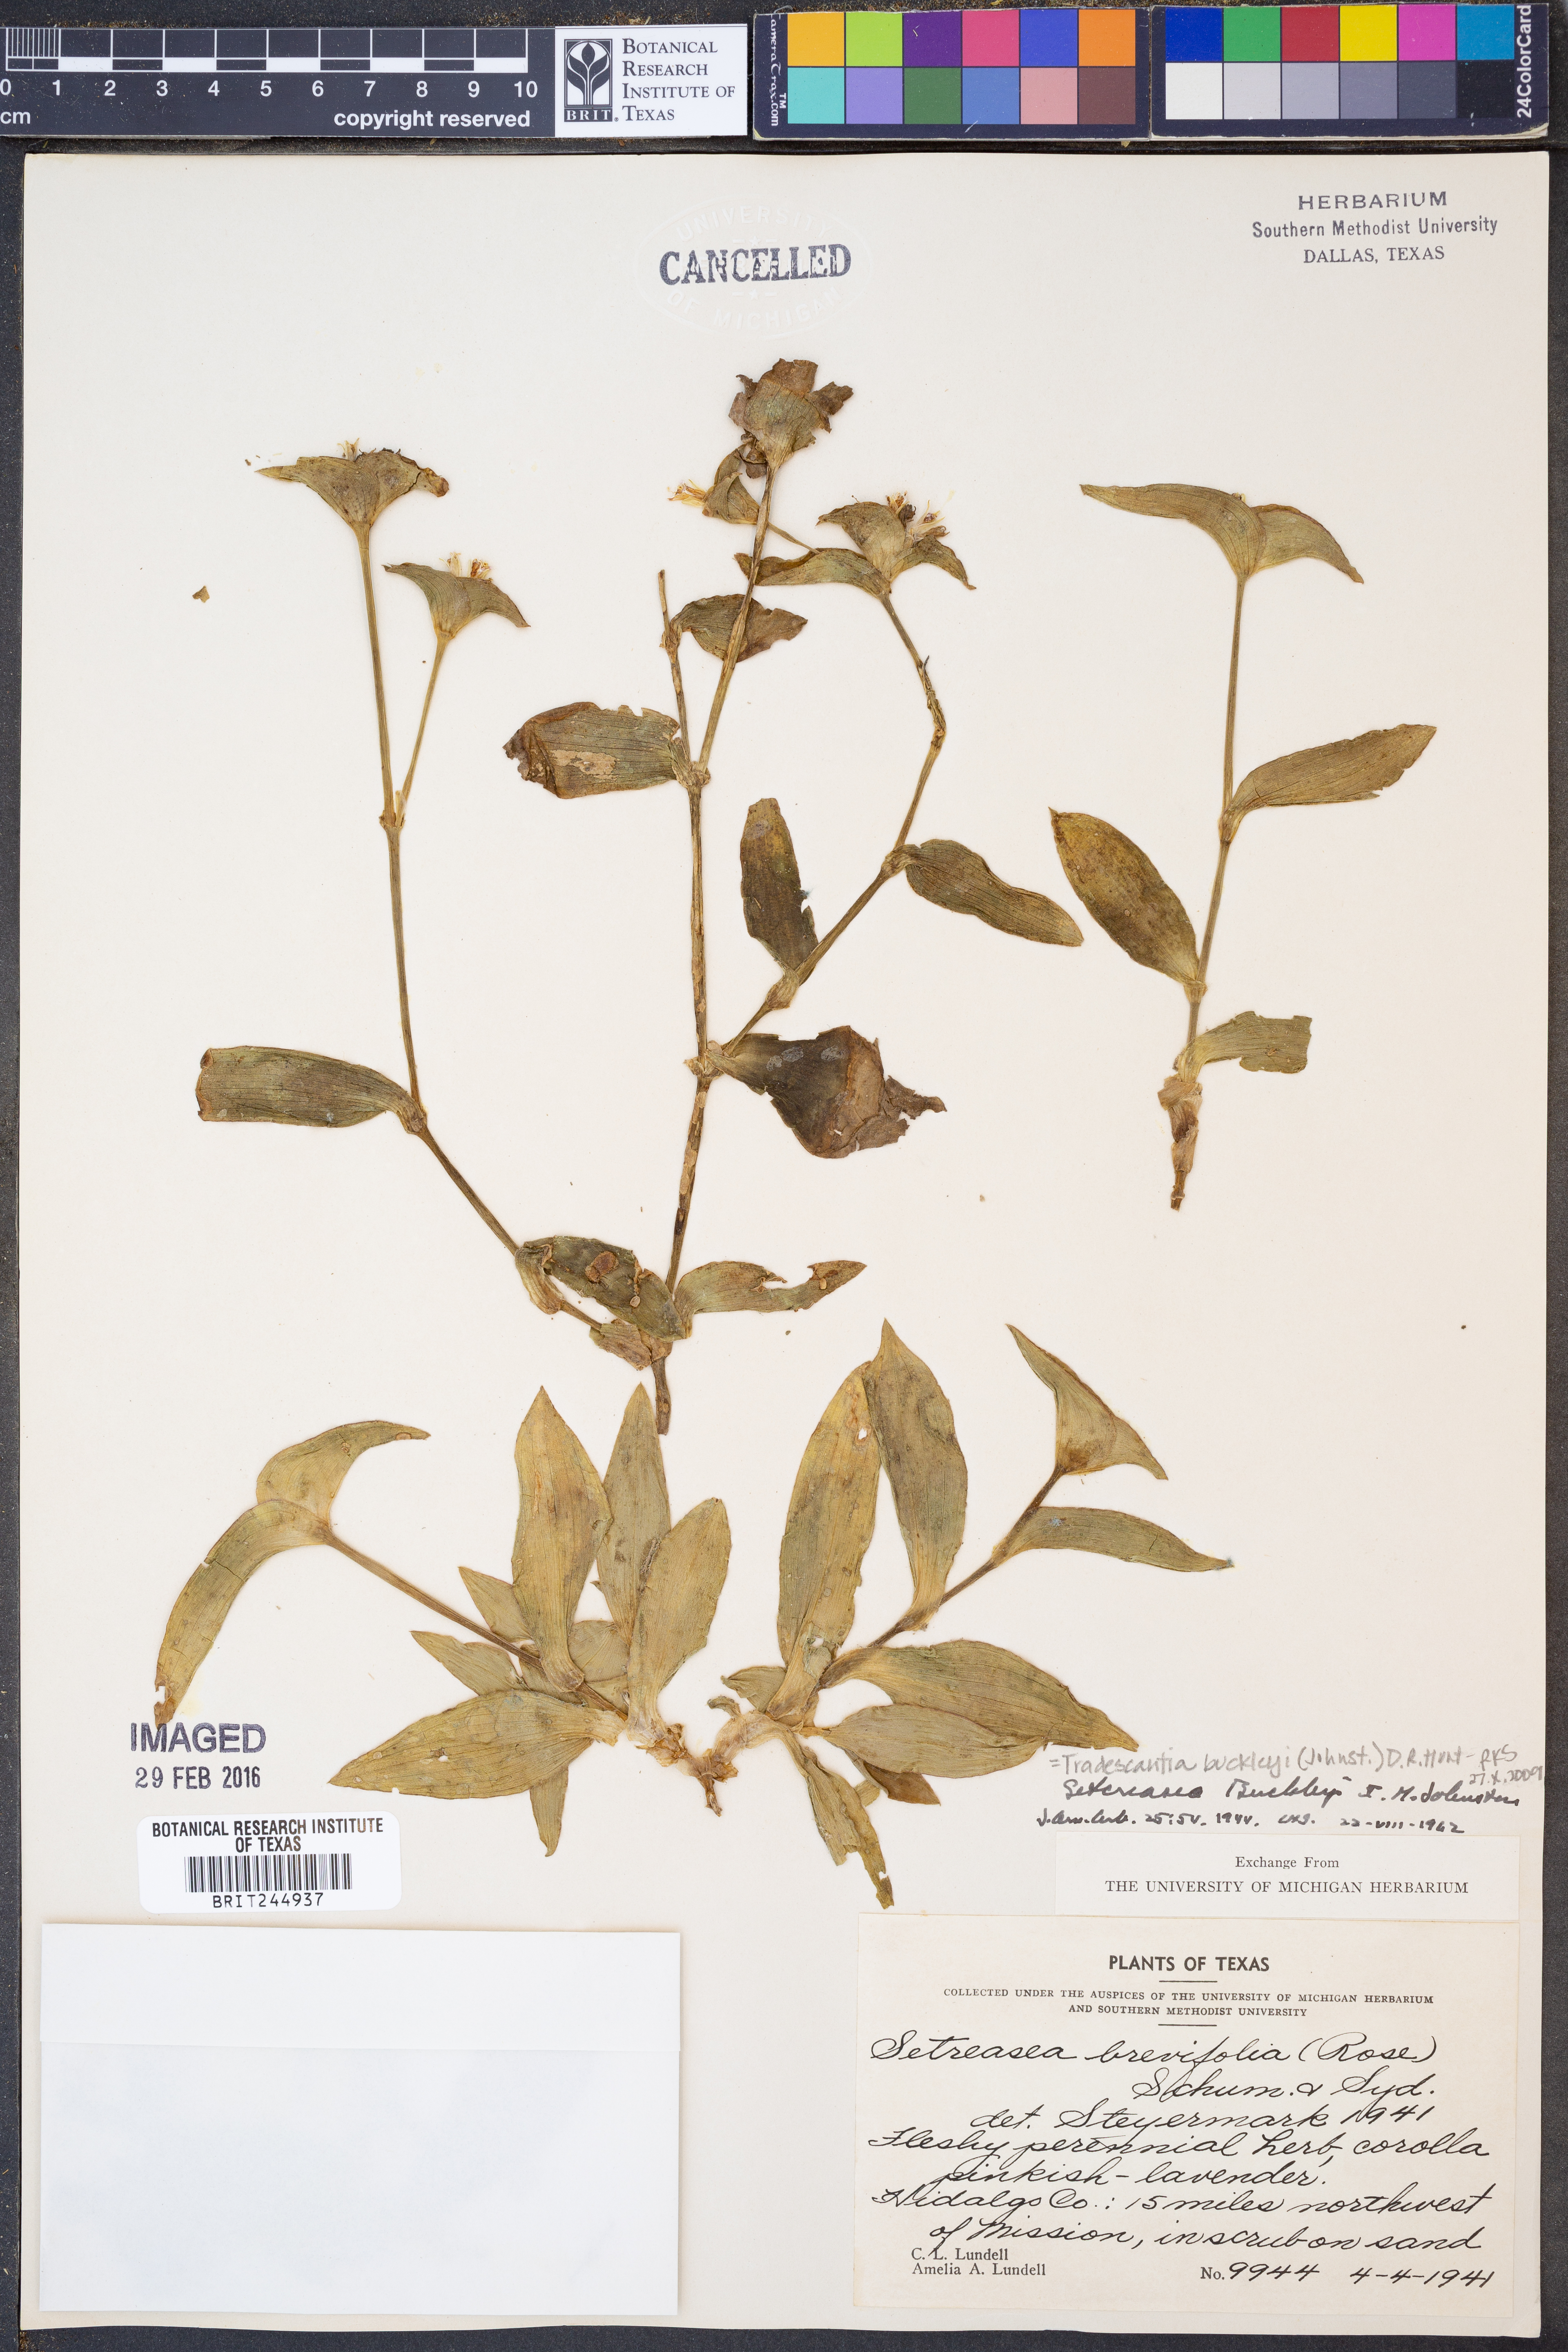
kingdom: Plantae
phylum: Tracheophyta
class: Liliopsida
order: Commelinales
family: Commelinaceae
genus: Tradescantia
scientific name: Tradescantia buckleyi
